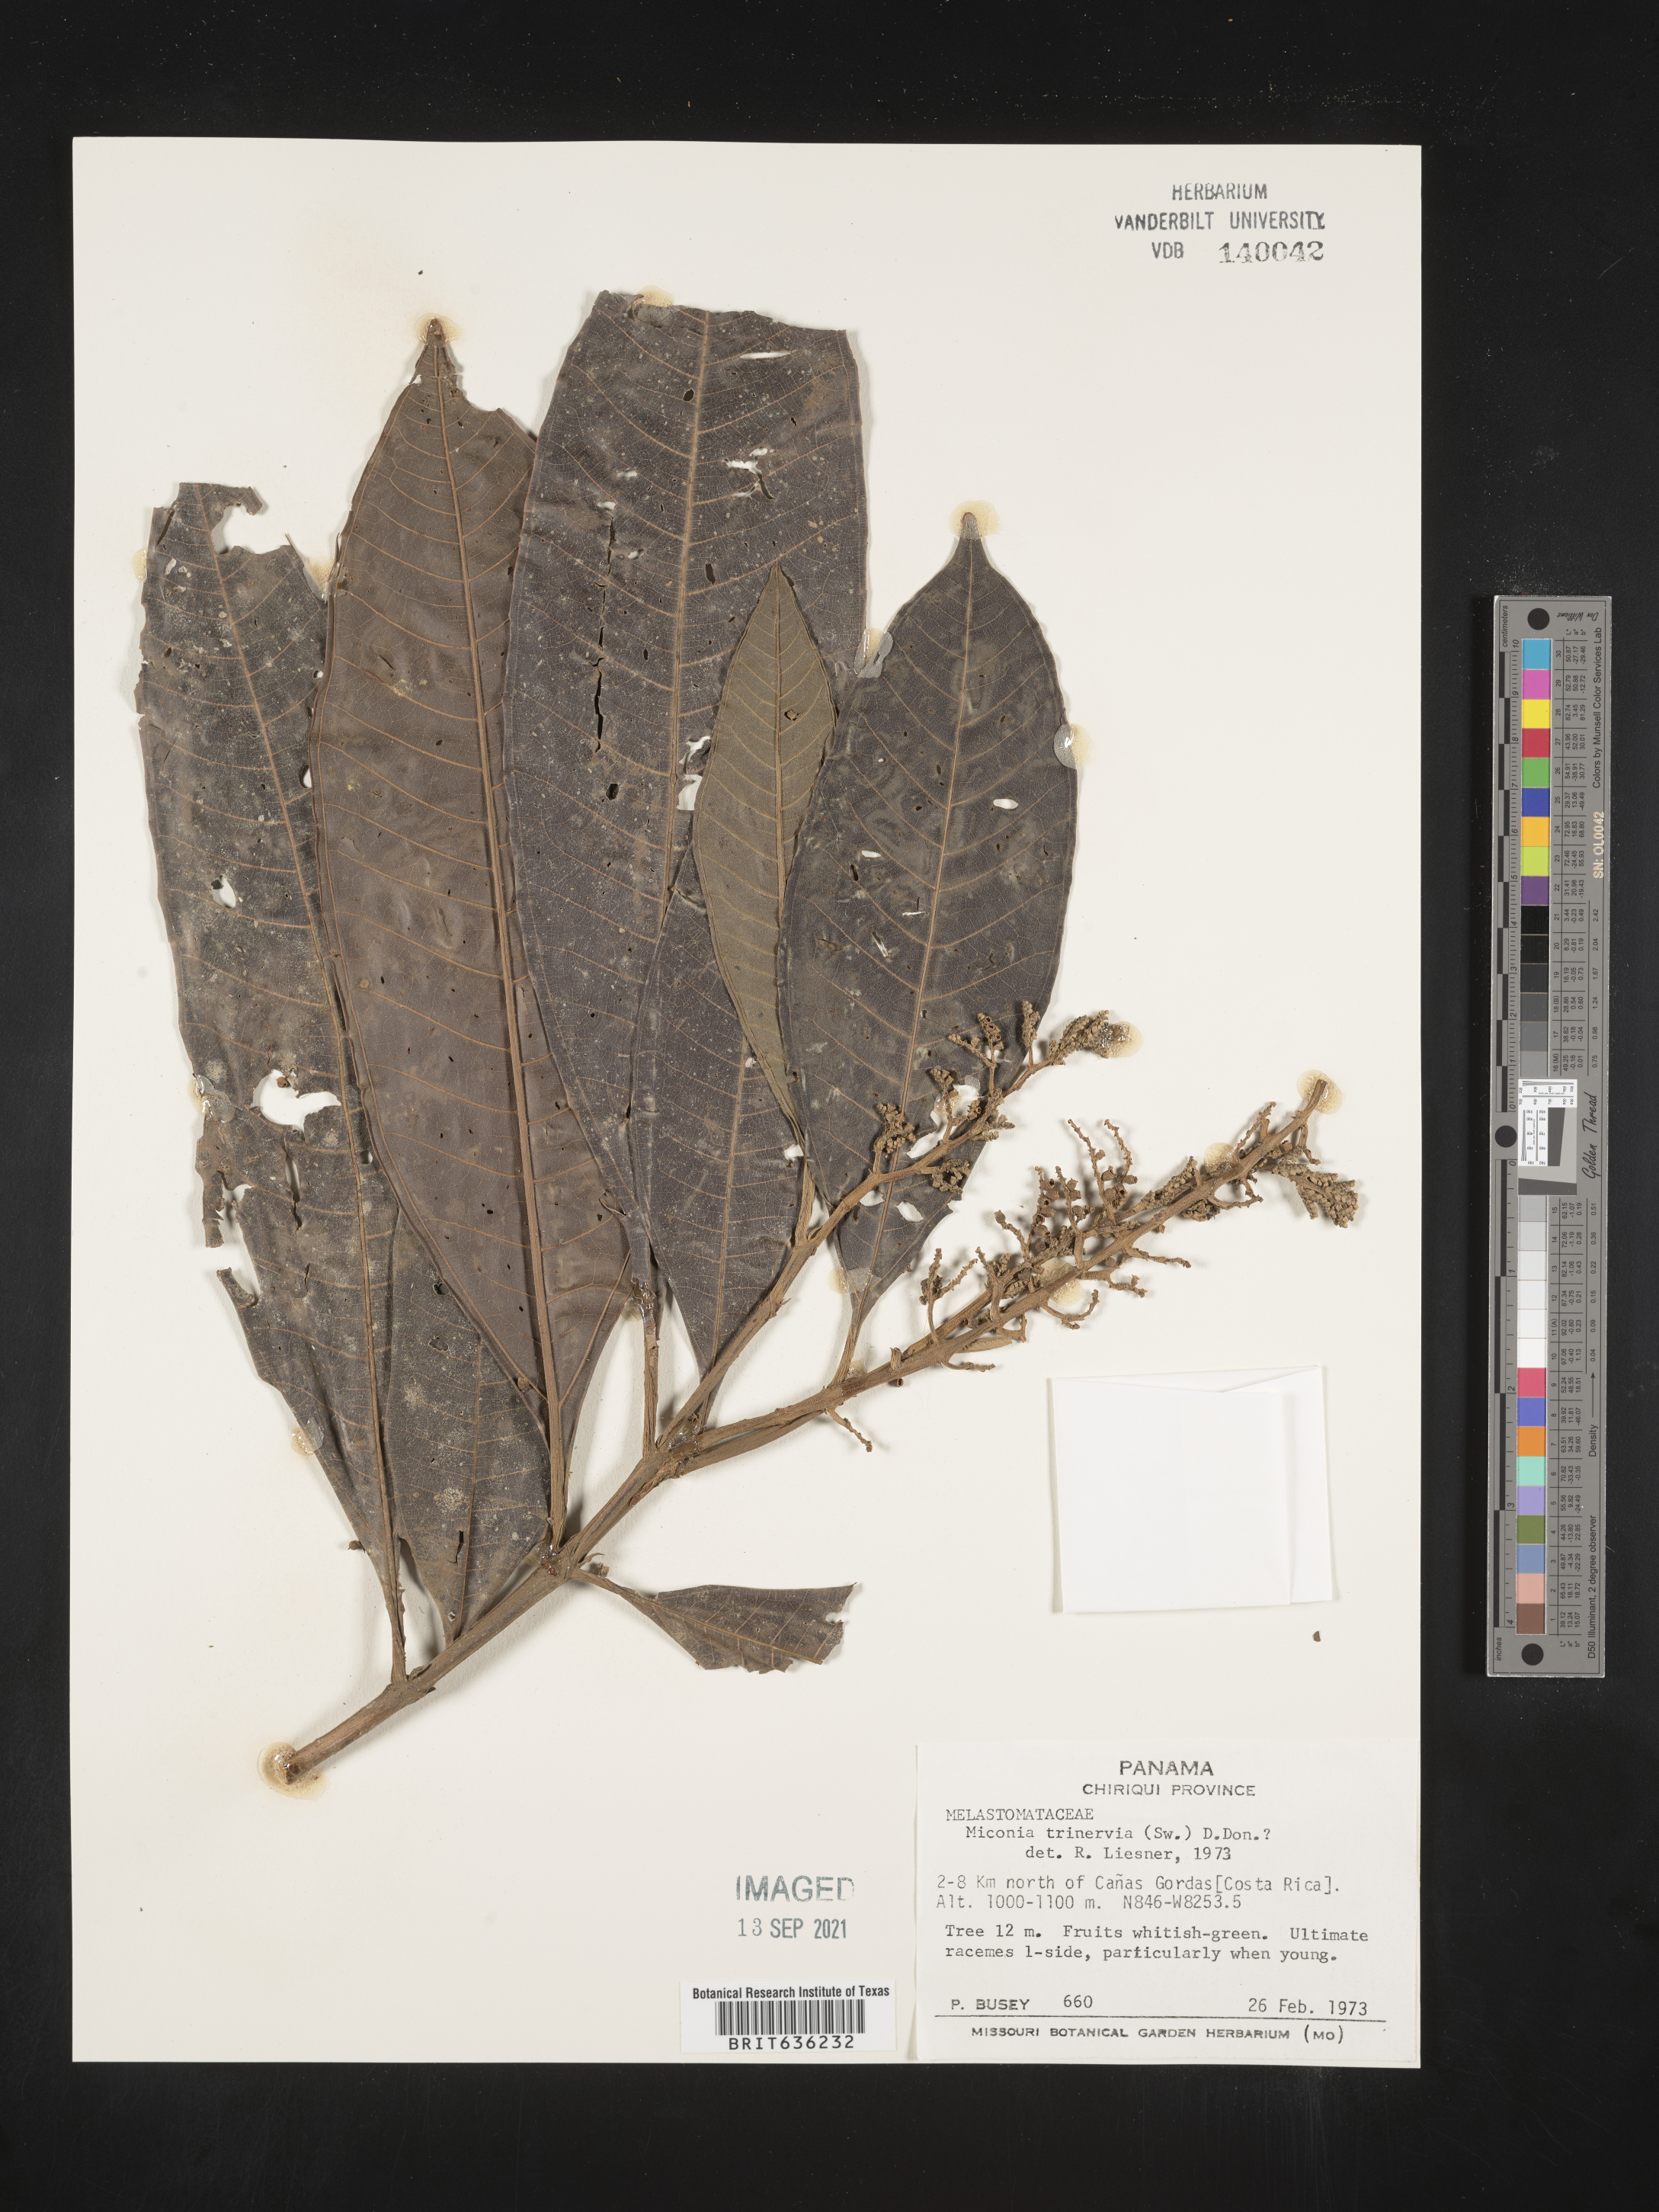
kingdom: Plantae
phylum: Tracheophyta
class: Magnoliopsida
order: Myrtales
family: Melastomataceae
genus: Miconia
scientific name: Miconia
